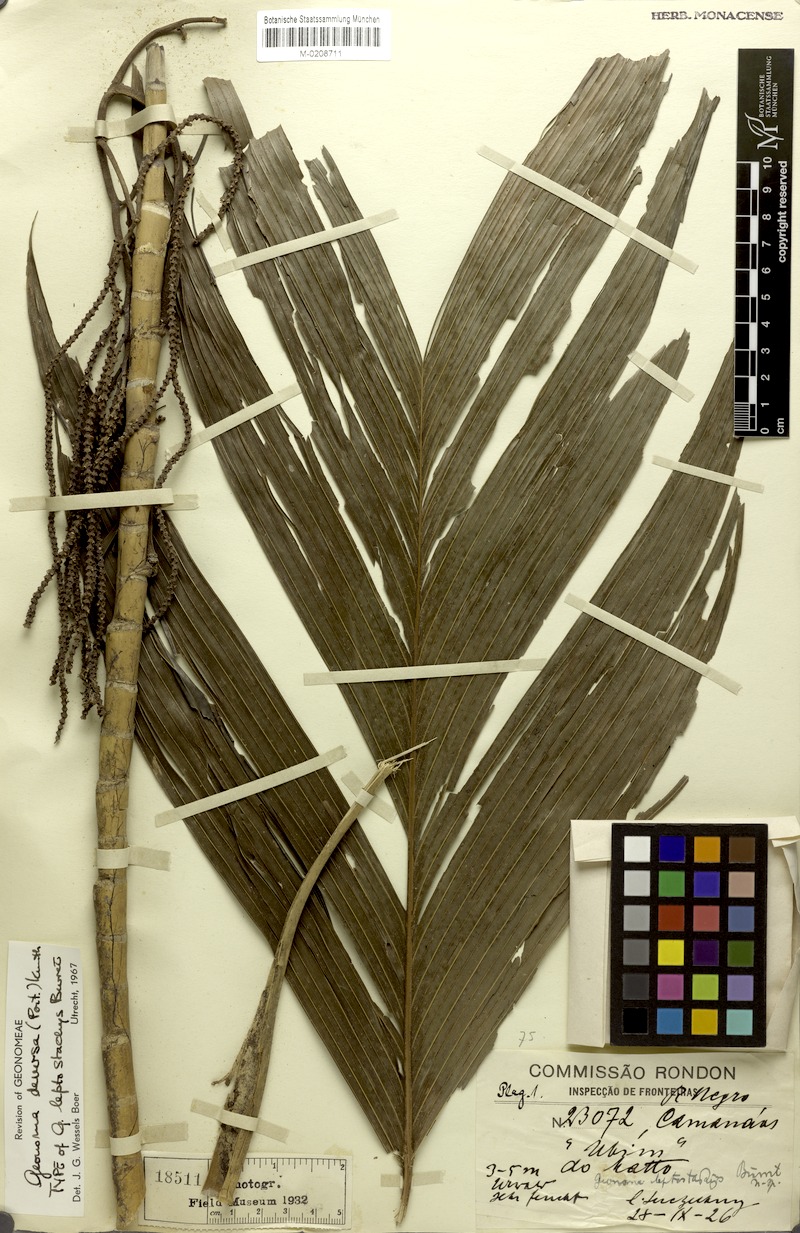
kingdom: Plantae
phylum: Tracheophyta
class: Liliopsida
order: Arecales
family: Arecaceae
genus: Geonoma
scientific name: Geonoma deversa
